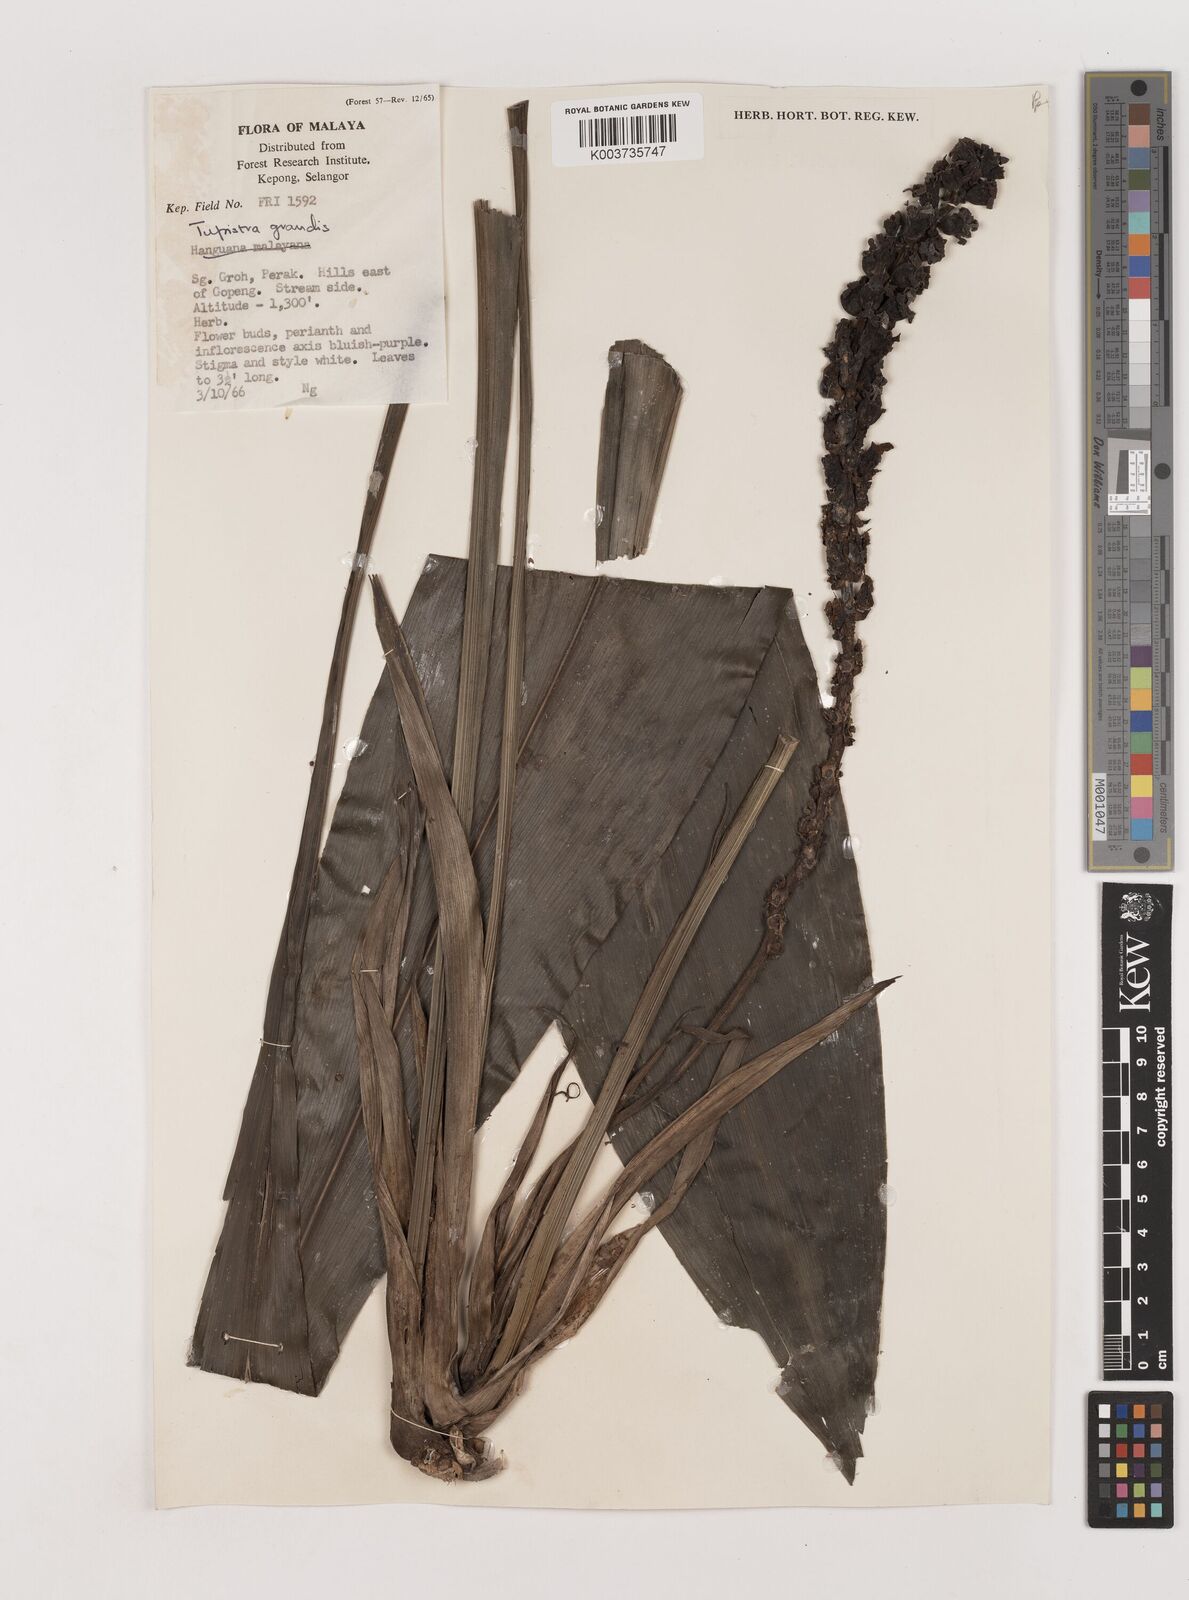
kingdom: Plantae
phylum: Tracheophyta
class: Liliopsida
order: Asparagales
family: Asparagaceae
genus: Tupistra
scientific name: Tupistra grandis
